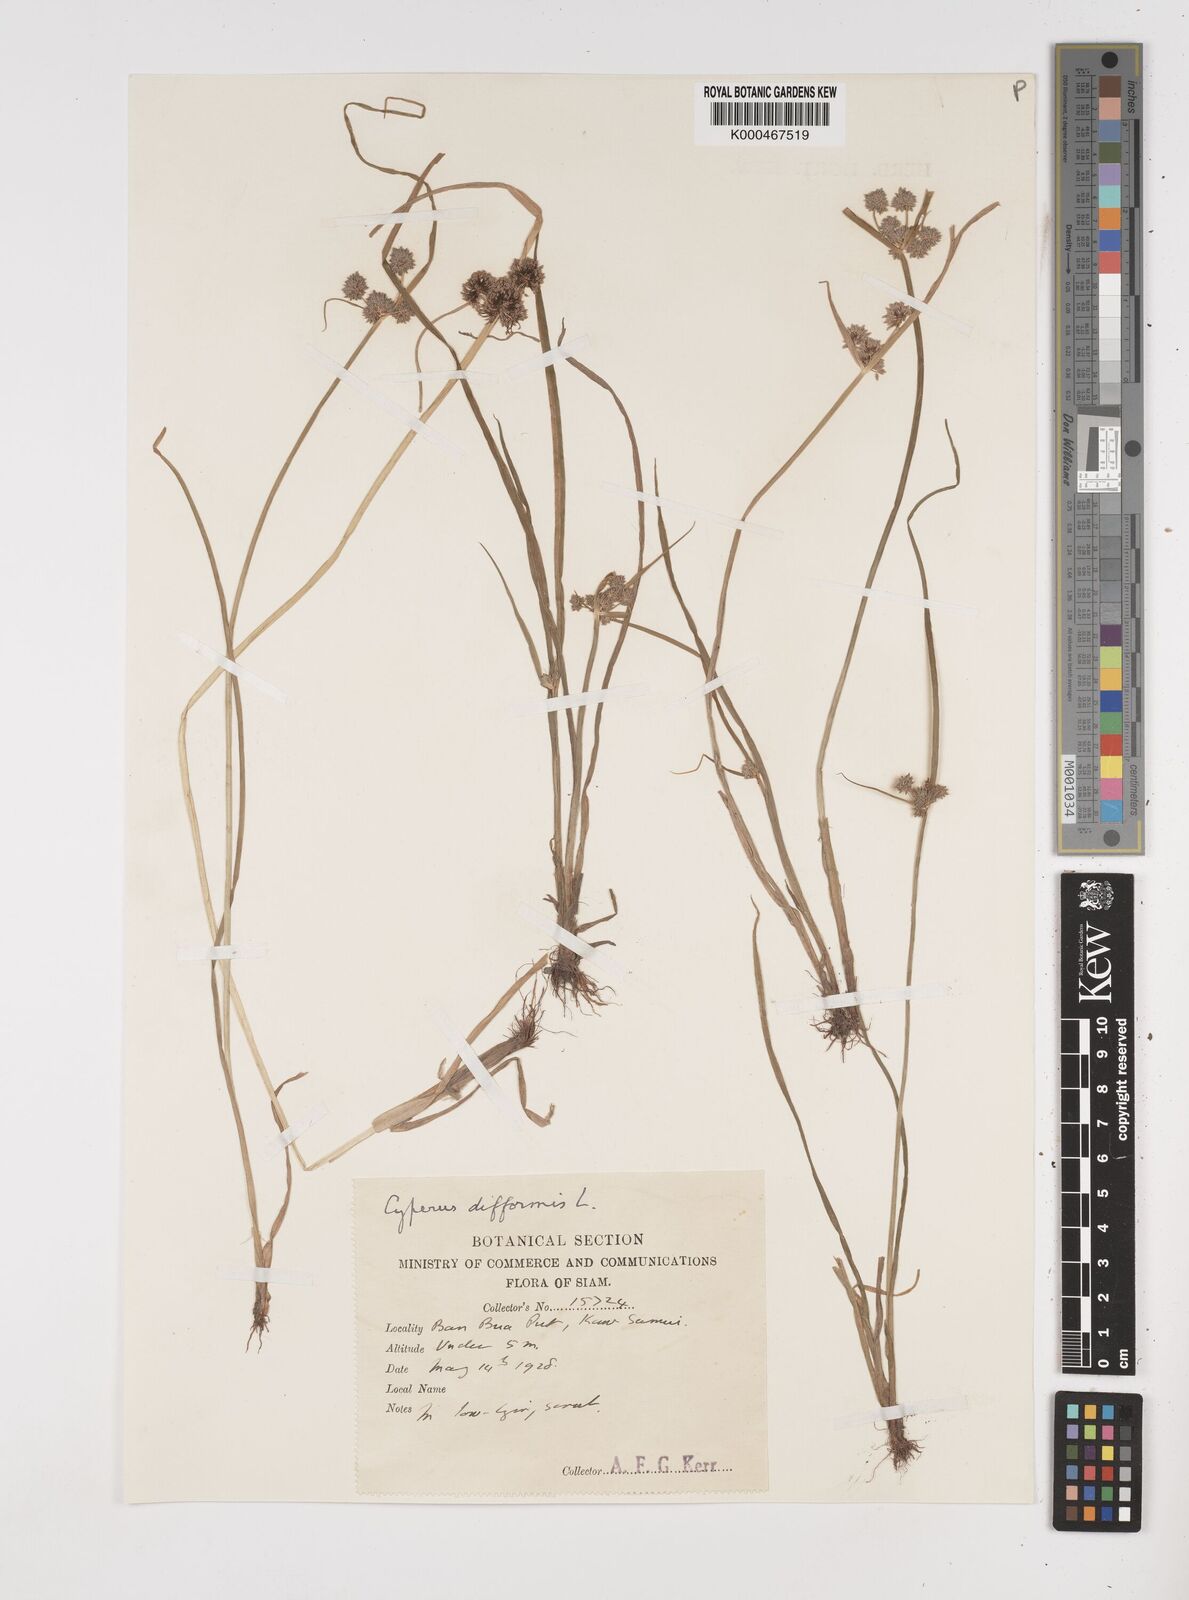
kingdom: Plantae
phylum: Tracheophyta
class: Liliopsida
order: Poales
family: Cyperaceae
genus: Cyperus
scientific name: Cyperus difformis
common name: Variable flatsedge
